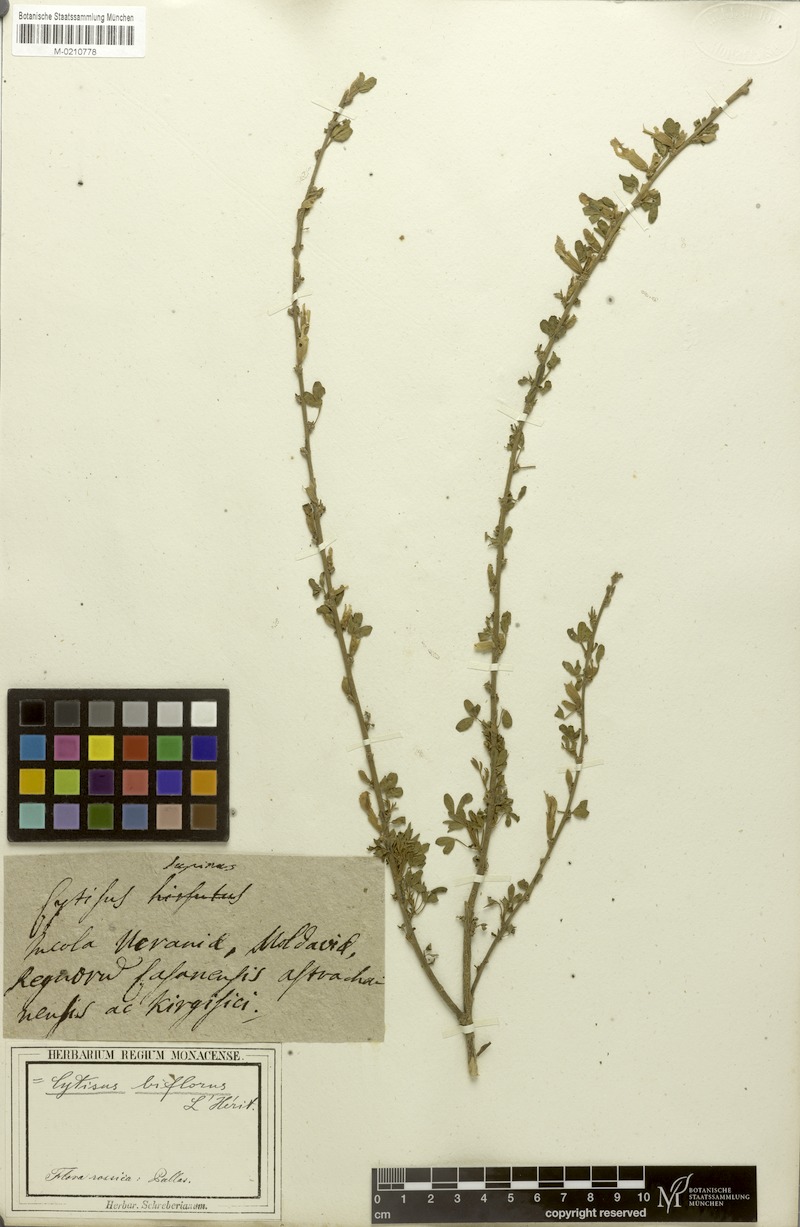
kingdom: Plantae
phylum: Tracheophyta
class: Magnoliopsida
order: Fabales
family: Fabaceae
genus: Chamaecytisus
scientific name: Chamaecytisus ratisbonensis
